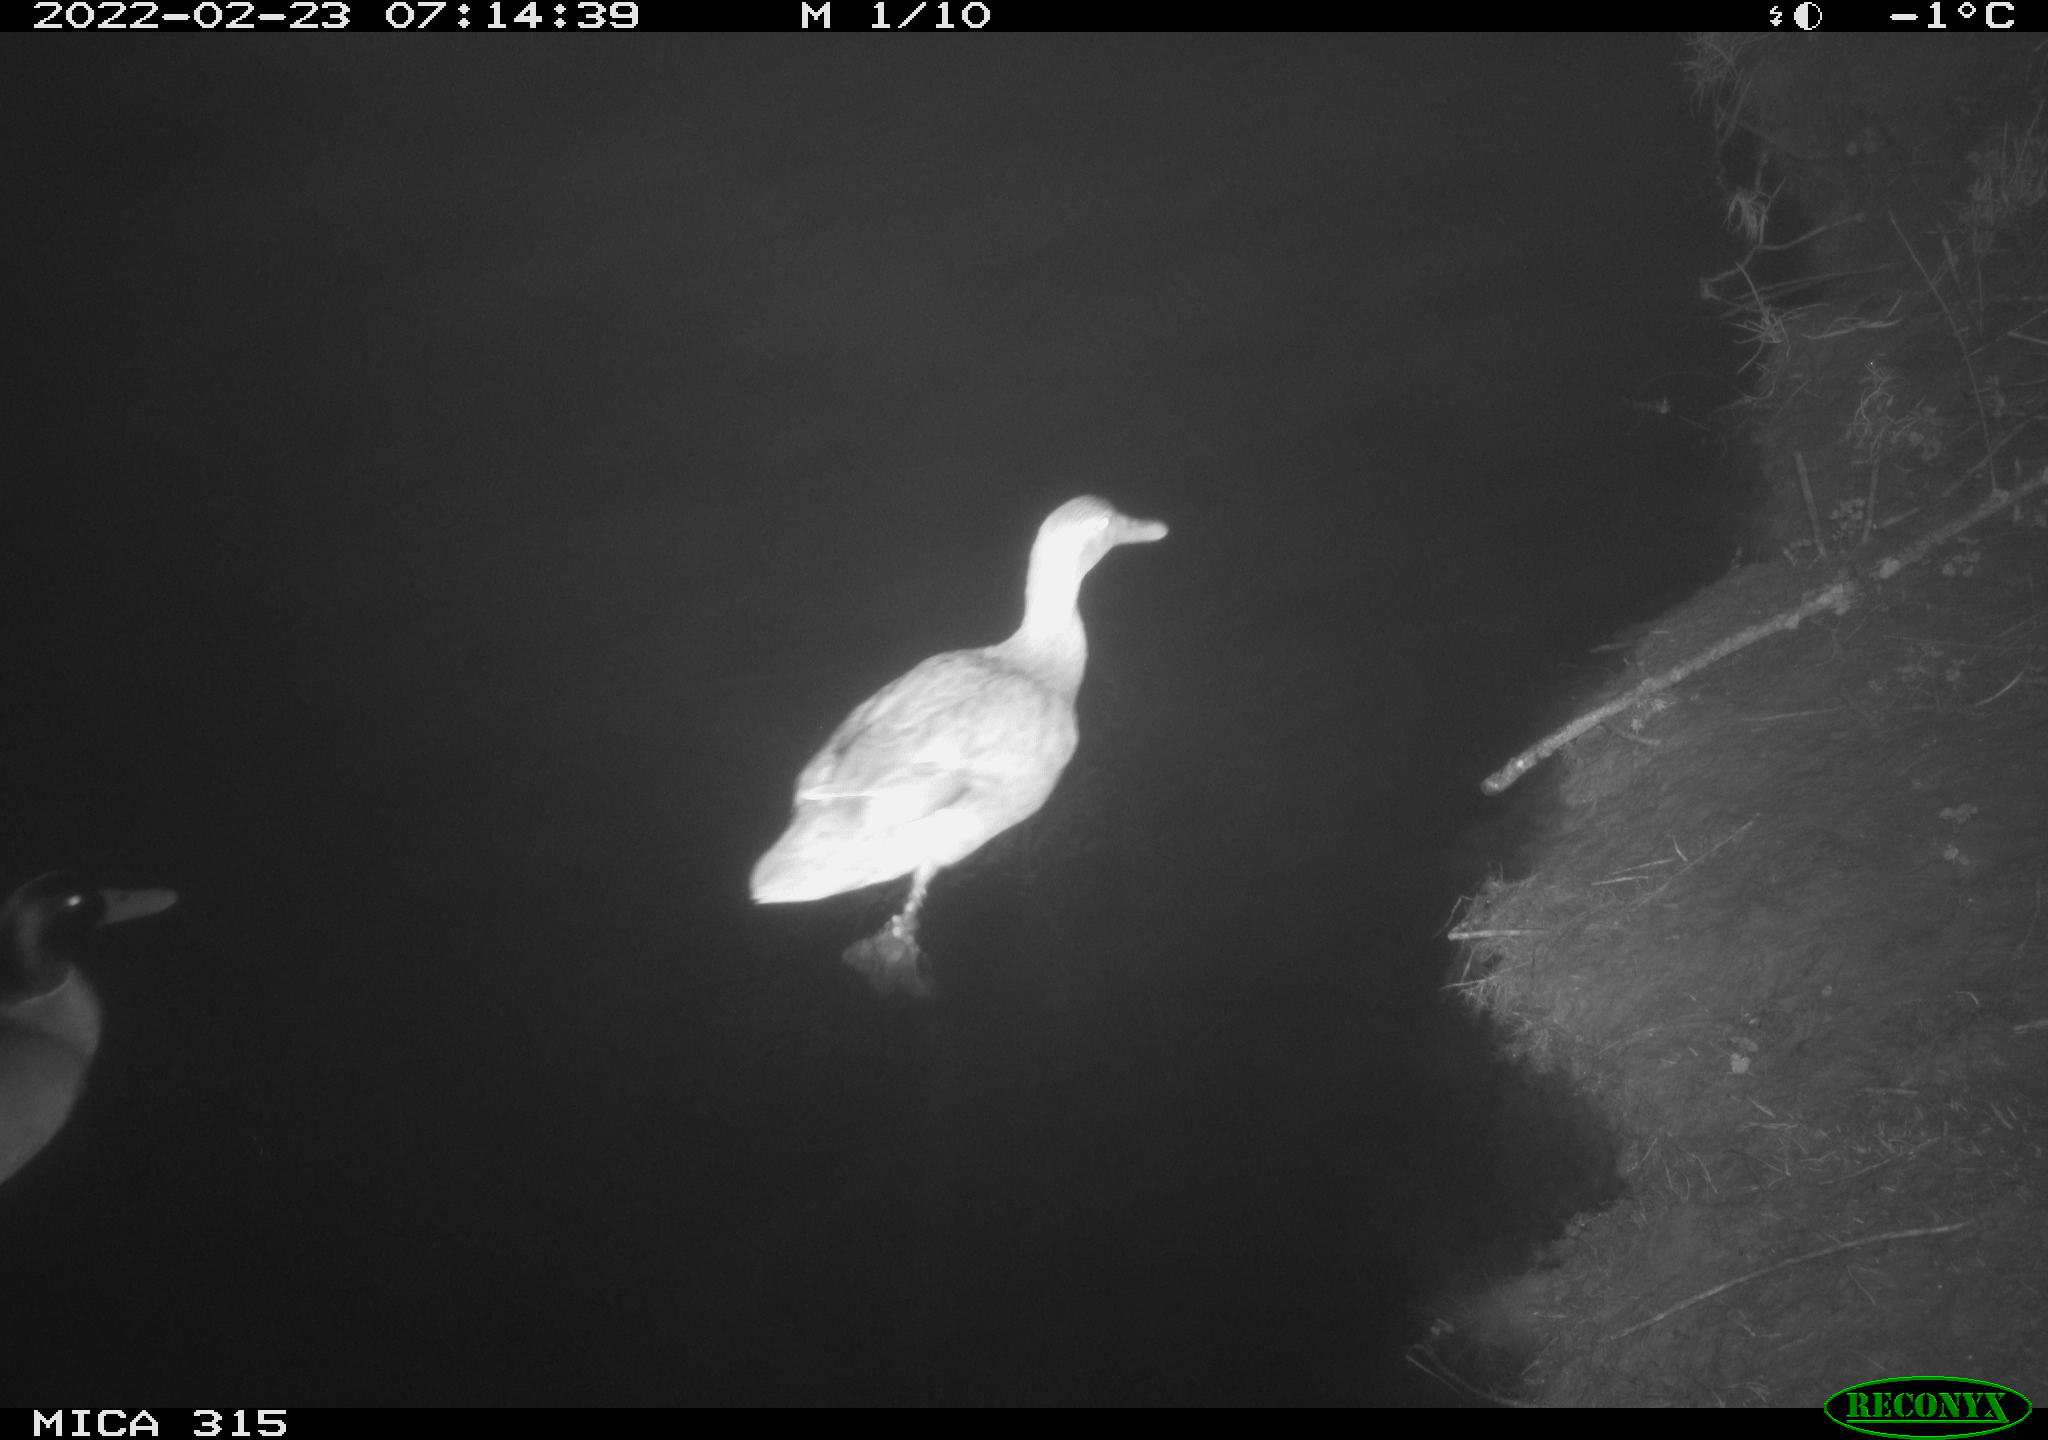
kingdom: Animalia
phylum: Chordata
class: Aves
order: Anseriformes
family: Anatidae
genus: Anas
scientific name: Anas
